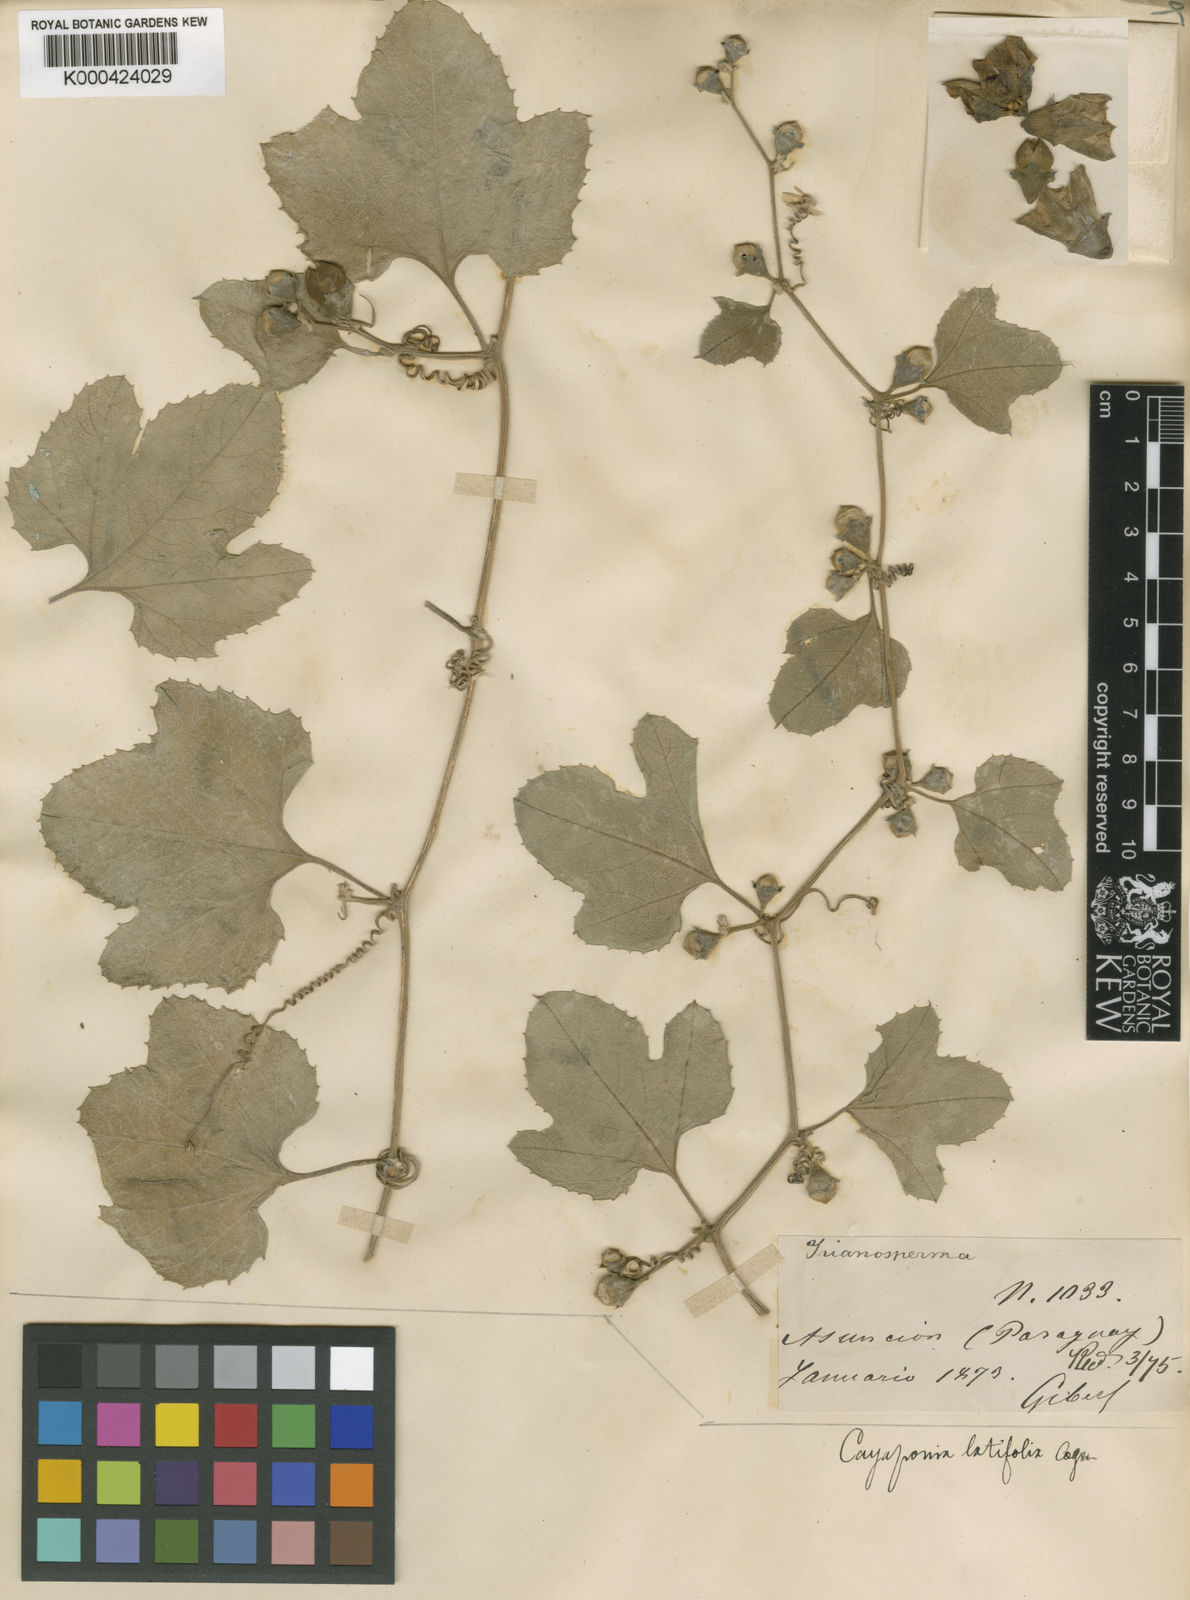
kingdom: Plantae
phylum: Tracheophyta
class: Magnoliopsida
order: Cucurbitales
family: Cucurbitaceae
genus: Cayaponia
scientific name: Cayaponia
